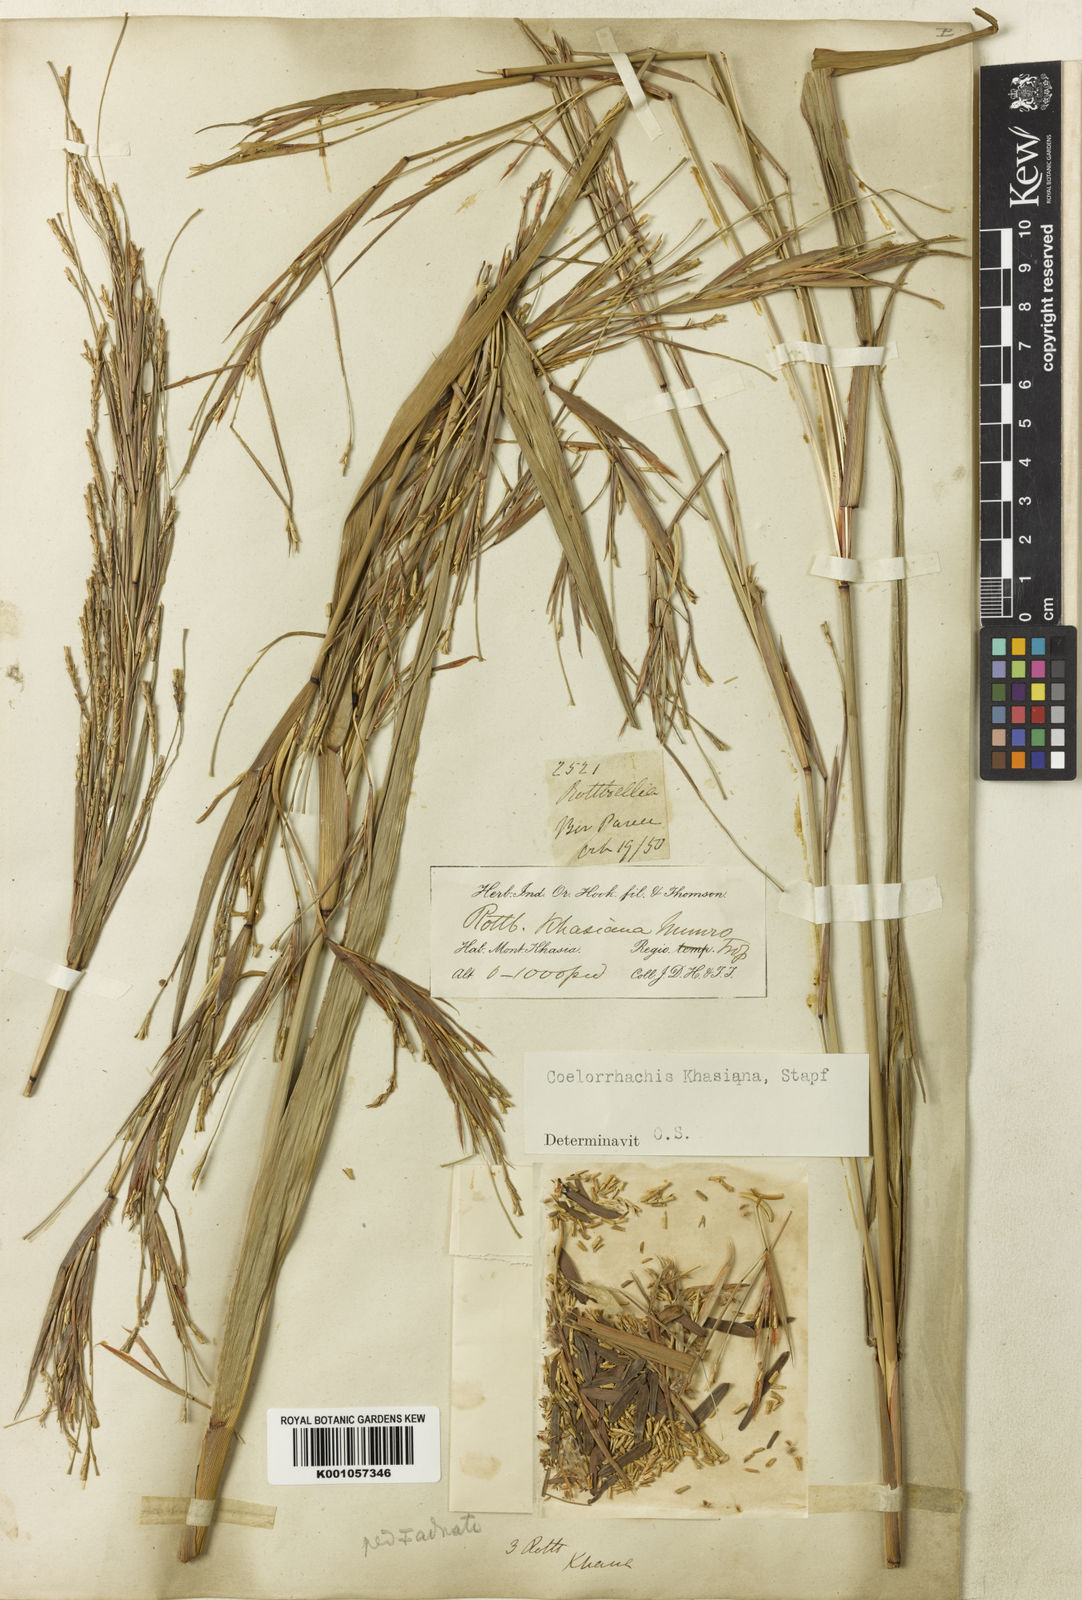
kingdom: Plantae
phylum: Tracheophyta
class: Liliopsida
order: Poales
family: Poaceae
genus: Rottboellia
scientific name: Rottboellia striata
